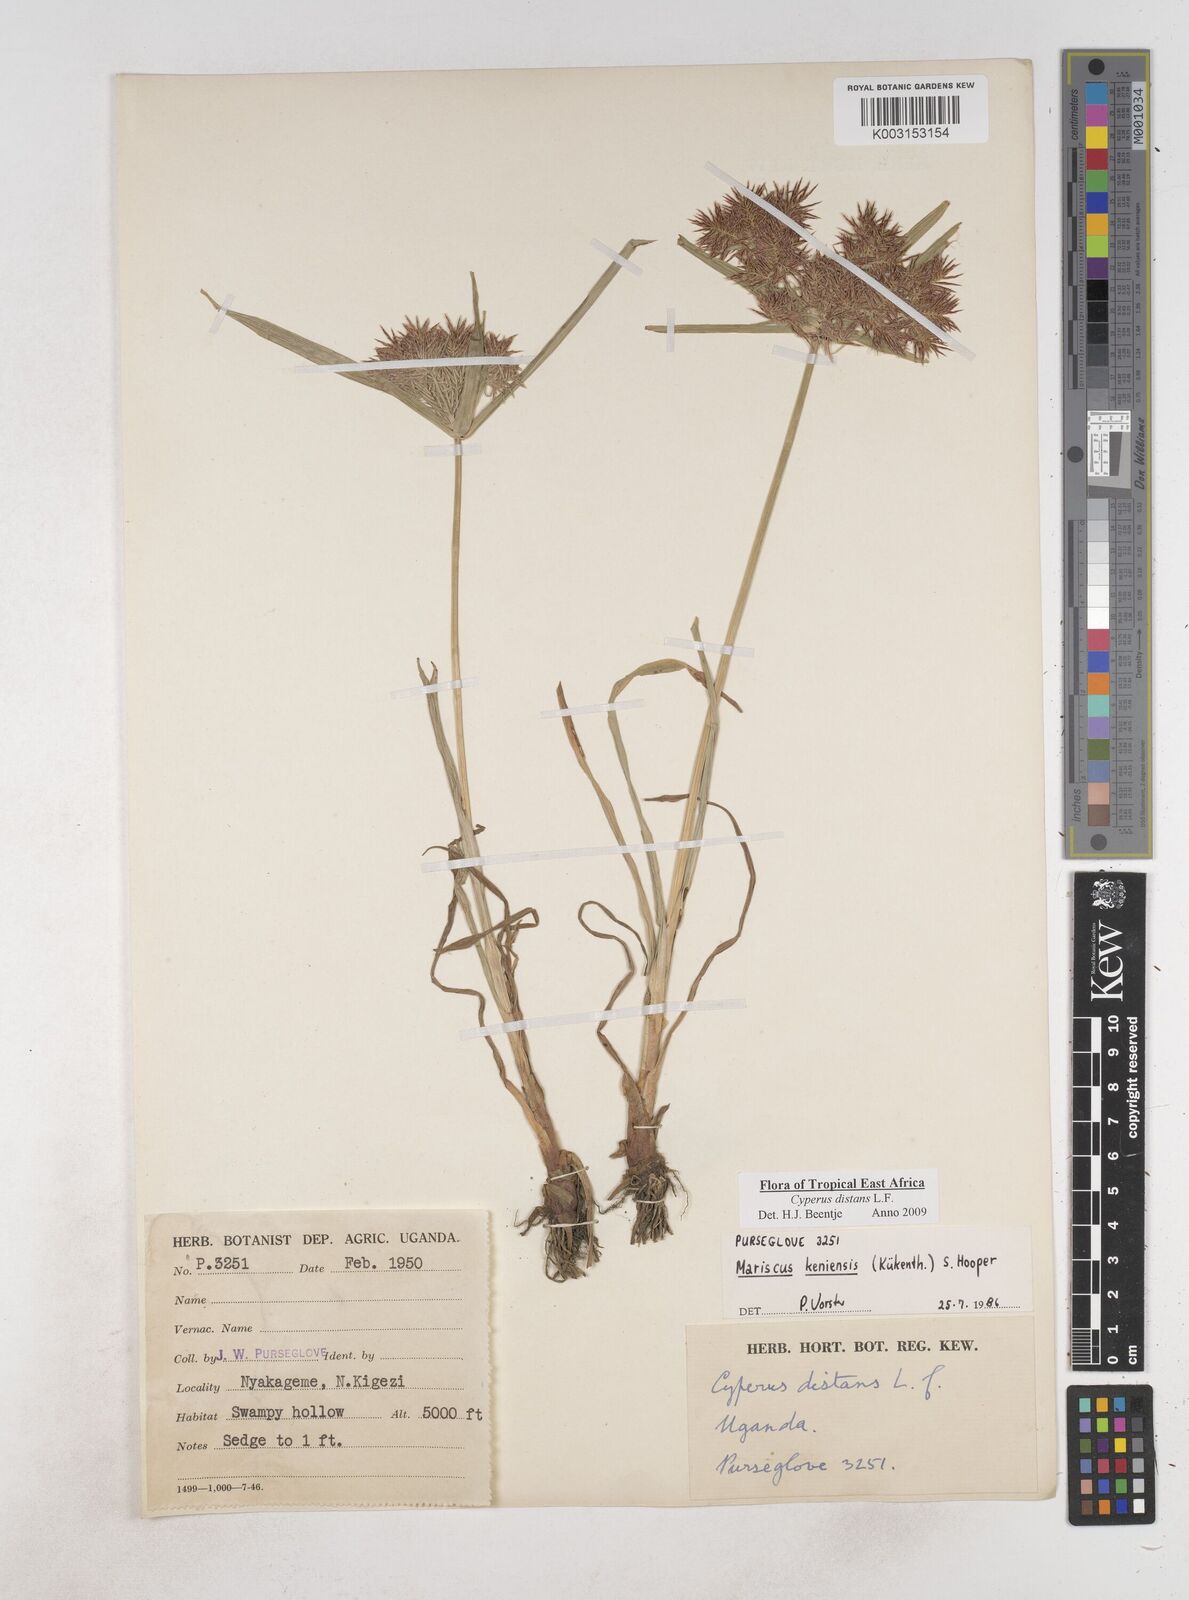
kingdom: Plantae
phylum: Tracheophyta
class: Liliopsida
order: Poales
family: Cyperaceae
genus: Cyperus
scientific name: Cyperus distans
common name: Slender cyperus
